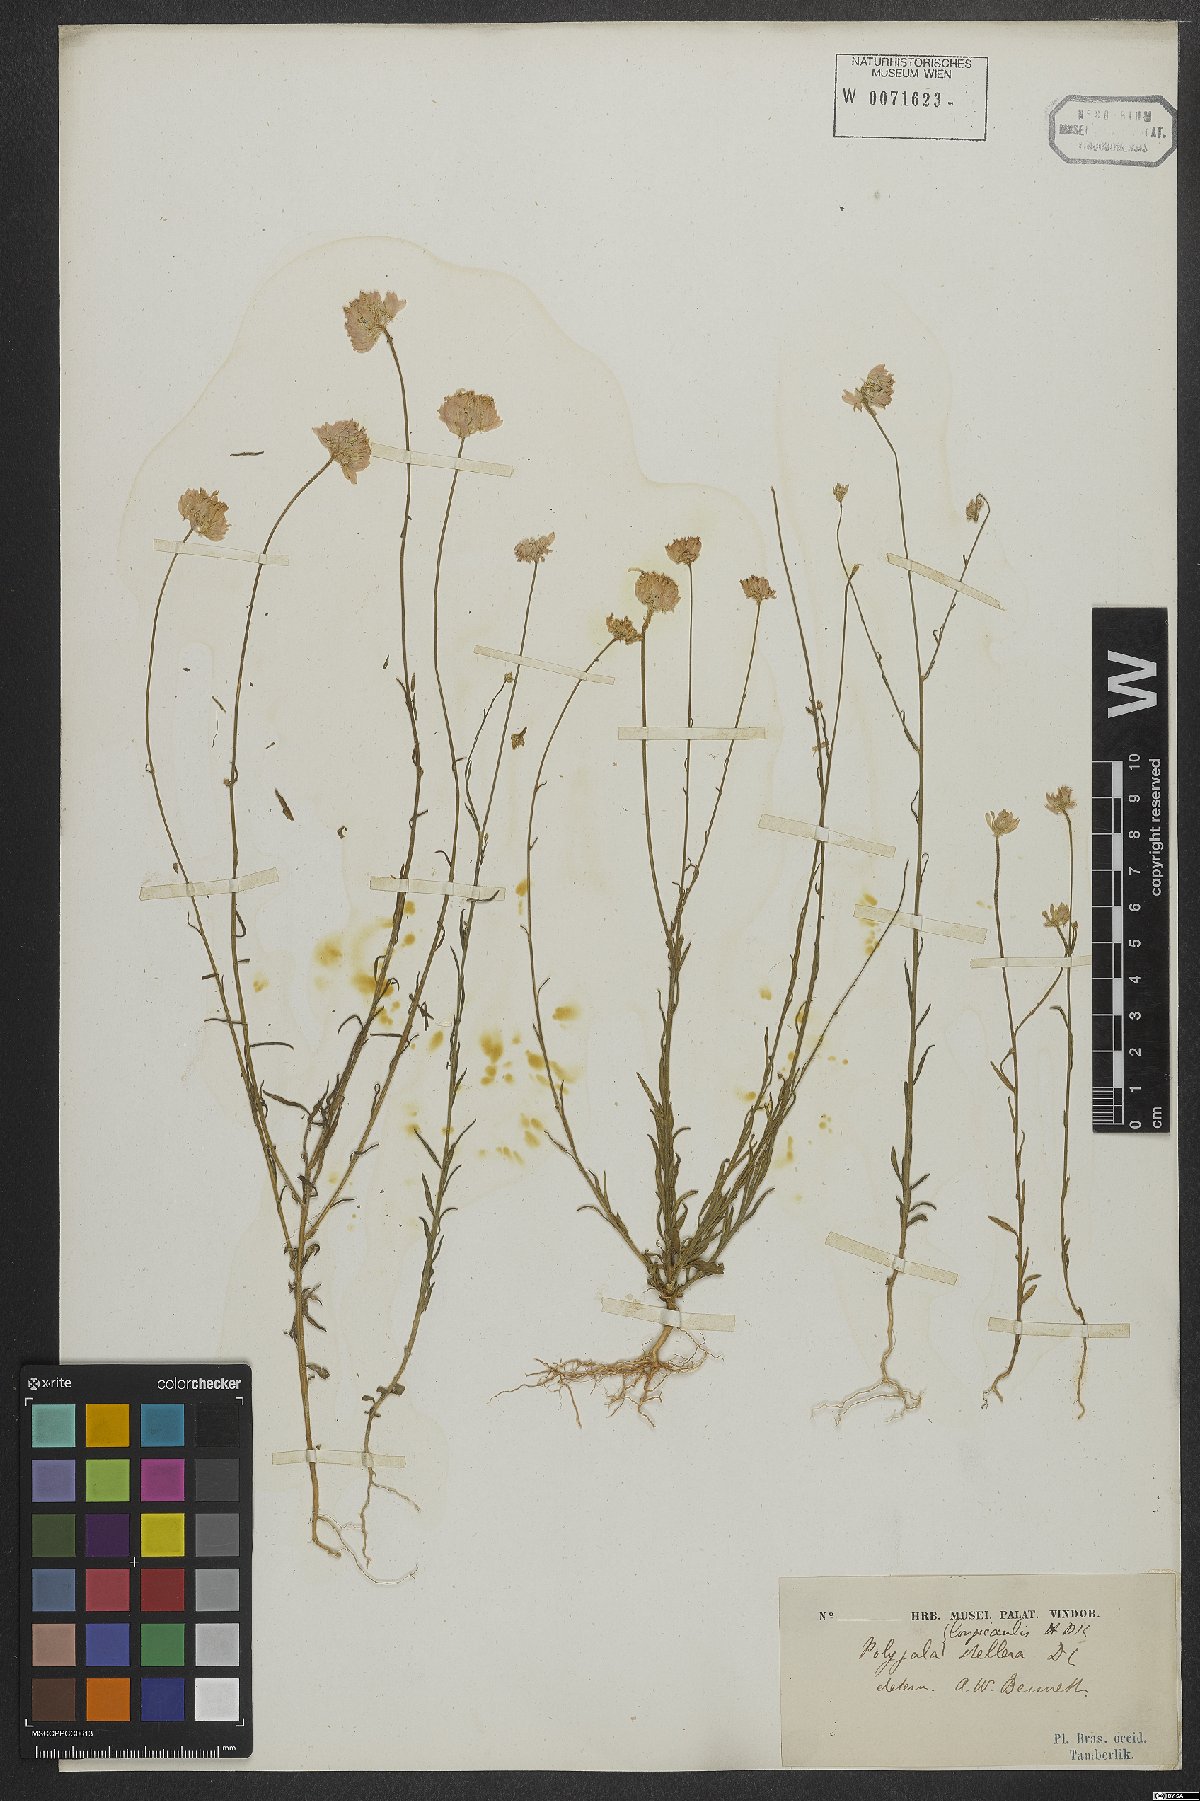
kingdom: Plantae
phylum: Tracheophyta
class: Magnoliopsida
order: Fabales
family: Polygalaceae
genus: Polygala
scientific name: Polygala longicaulis
